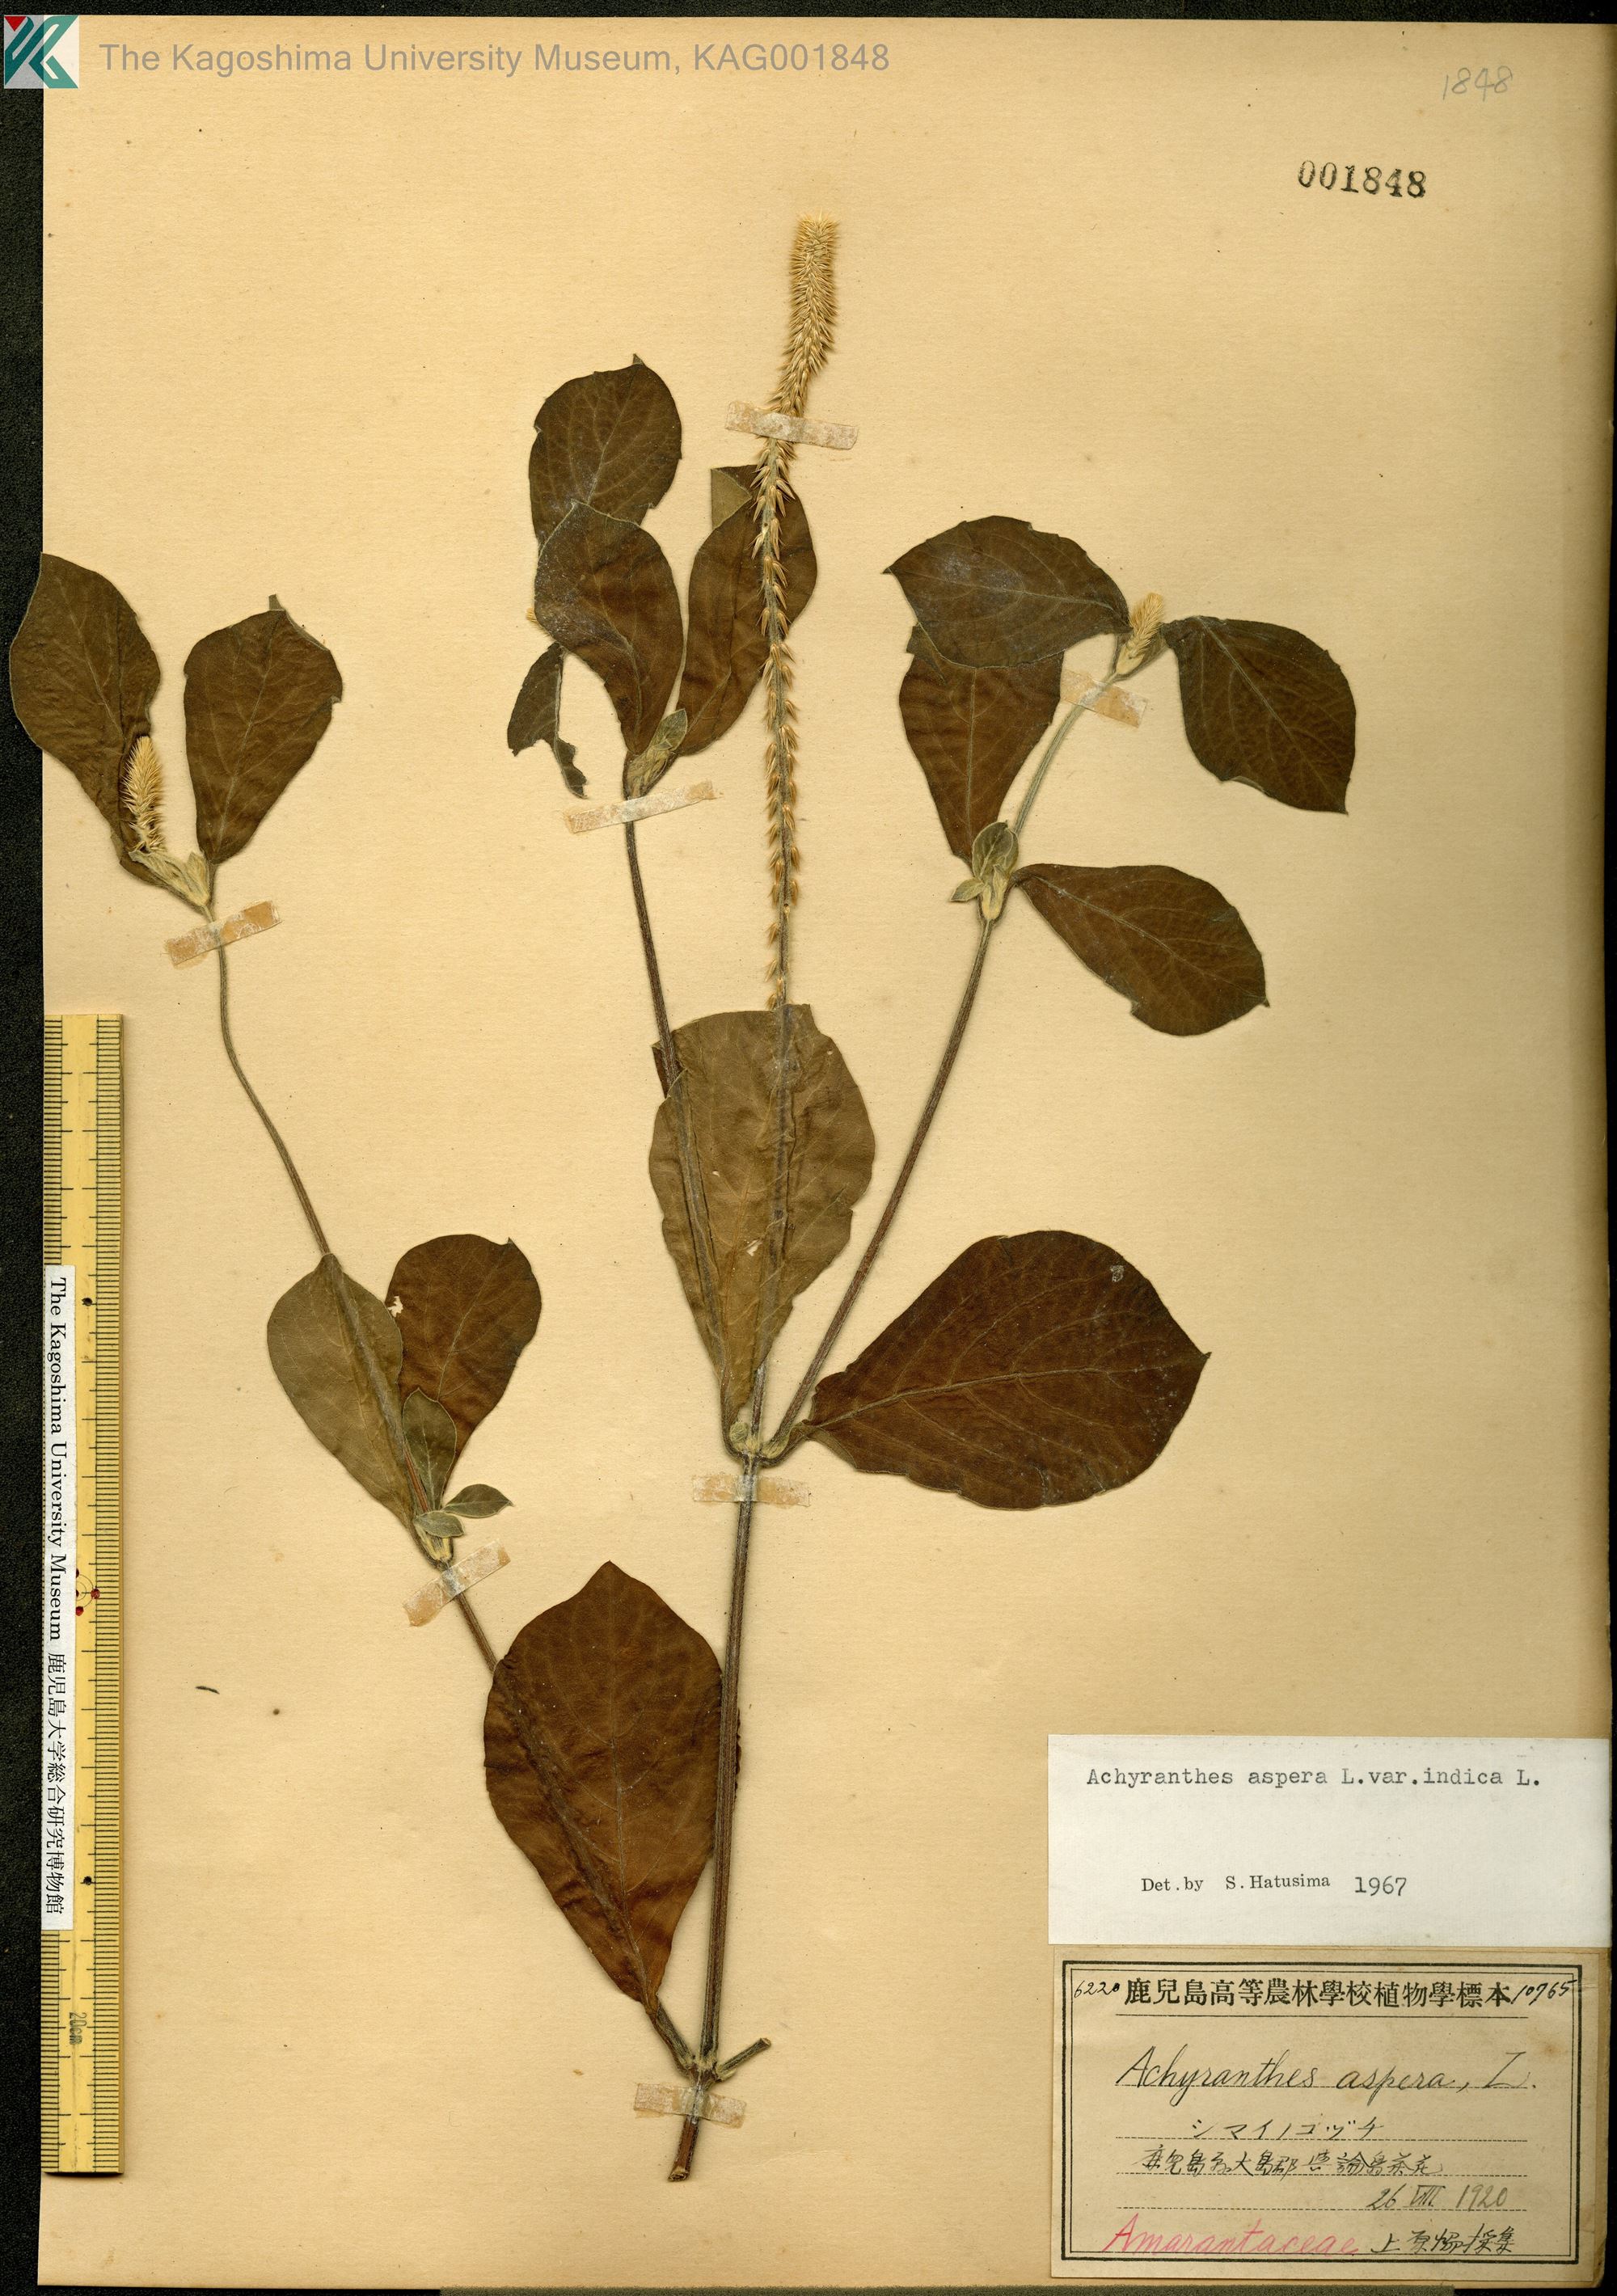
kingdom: Plantae
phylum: Tracheophyta
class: Magnoliopsida
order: Caryophyllales
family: Amaranthaceae
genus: Achyranthes
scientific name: Achyranthes aspera
